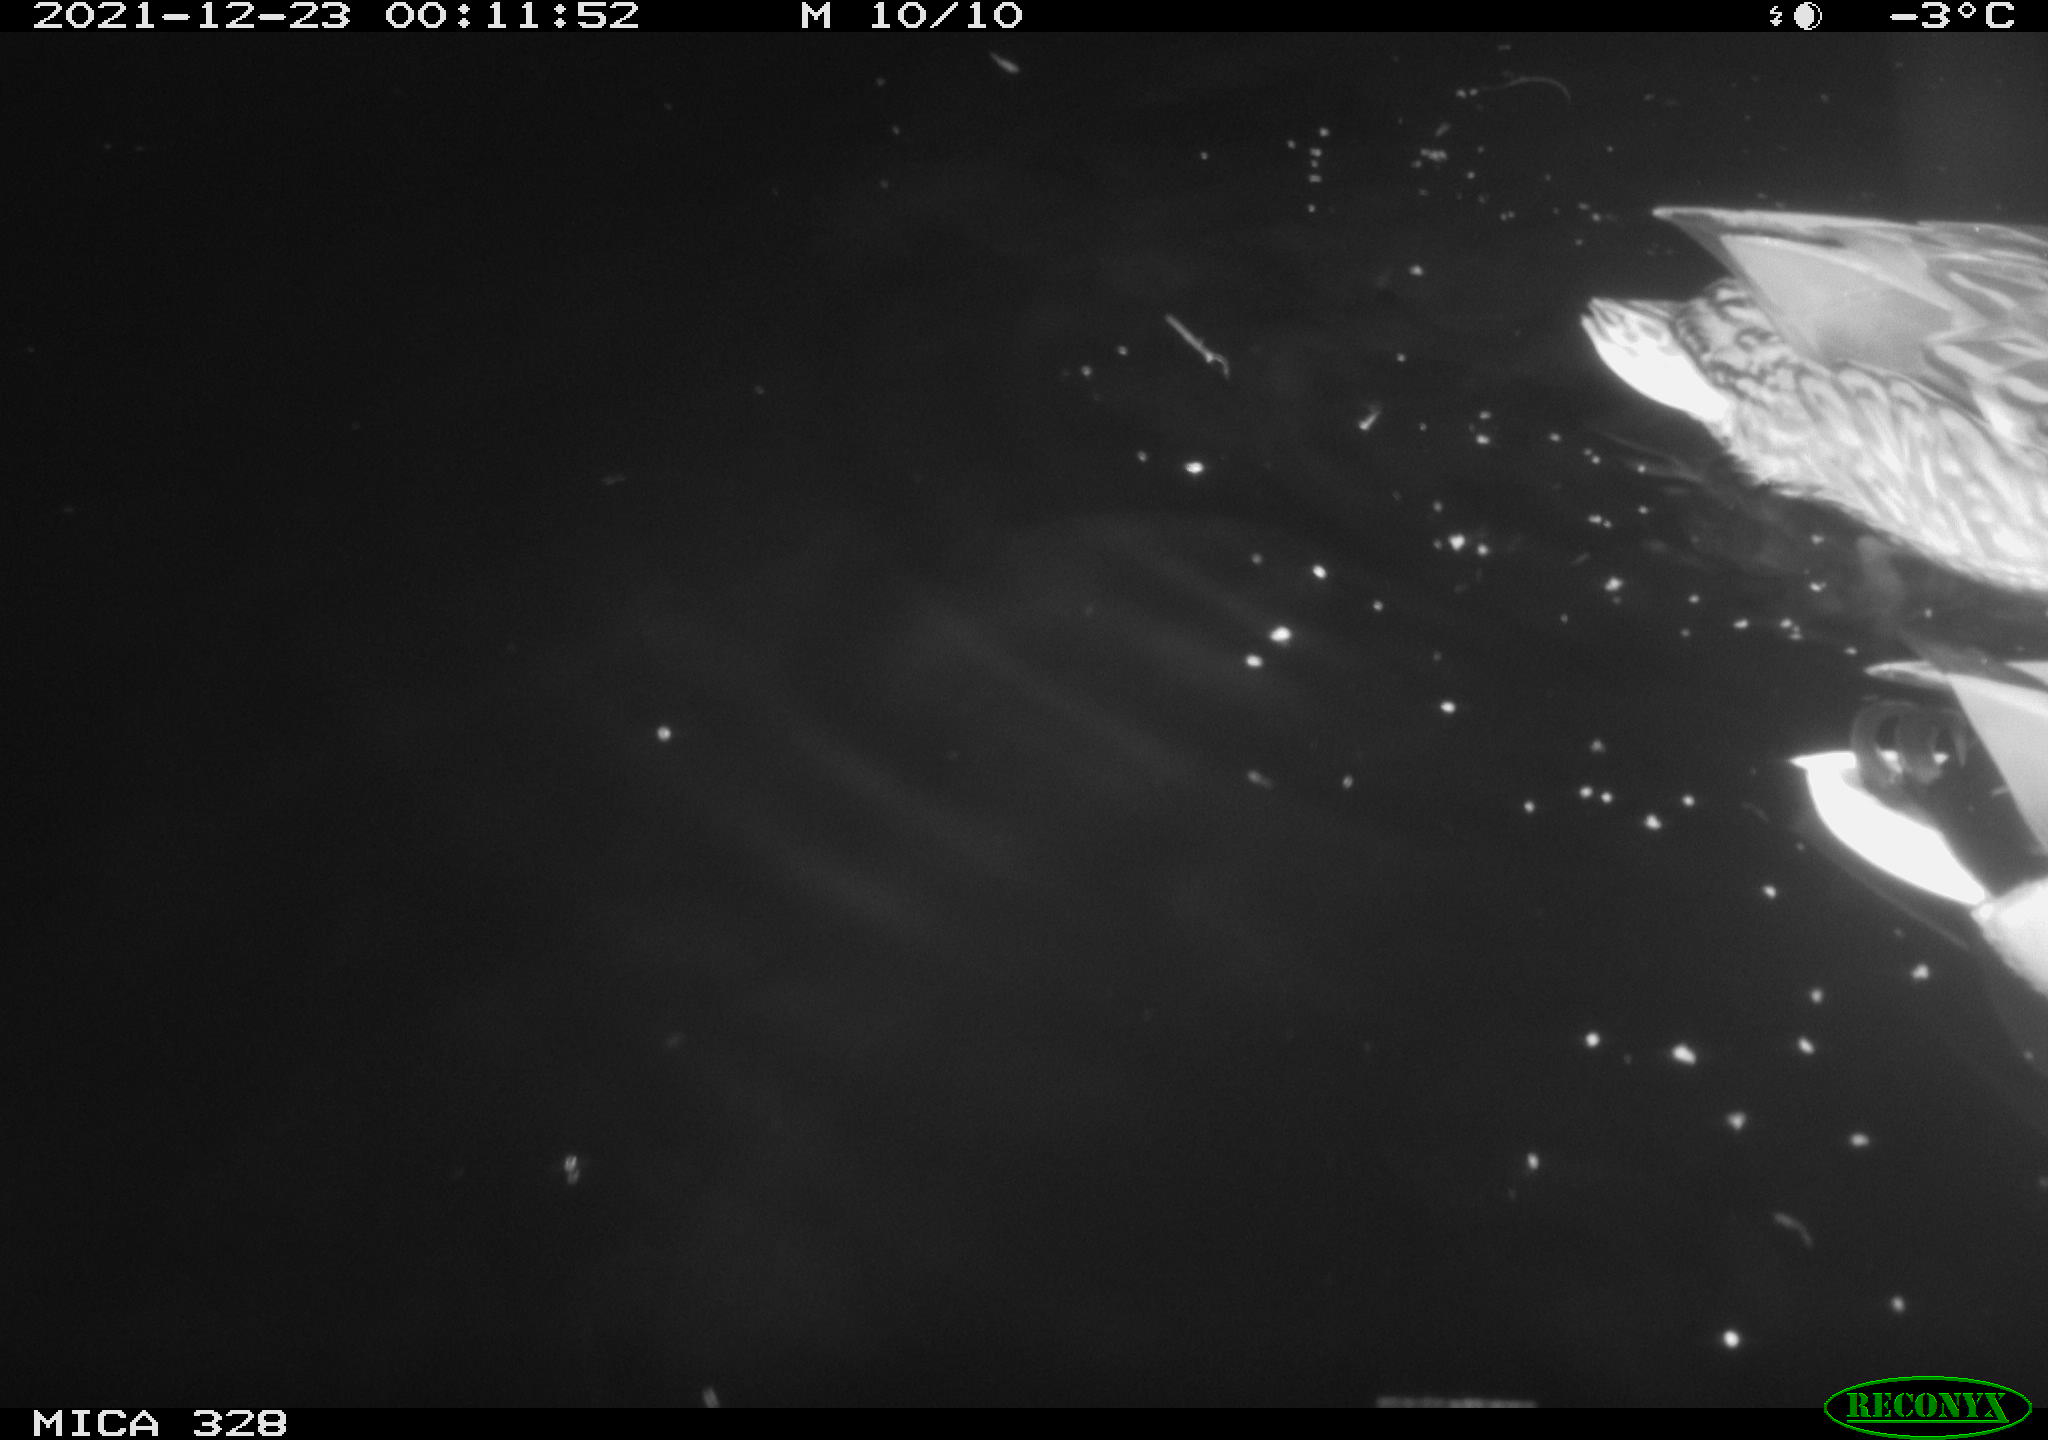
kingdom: Animalia
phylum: Chordata
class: Aves
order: Anseriformes
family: Anatidae
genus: Anas
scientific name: Anas platyrhynchos
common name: Mallard
